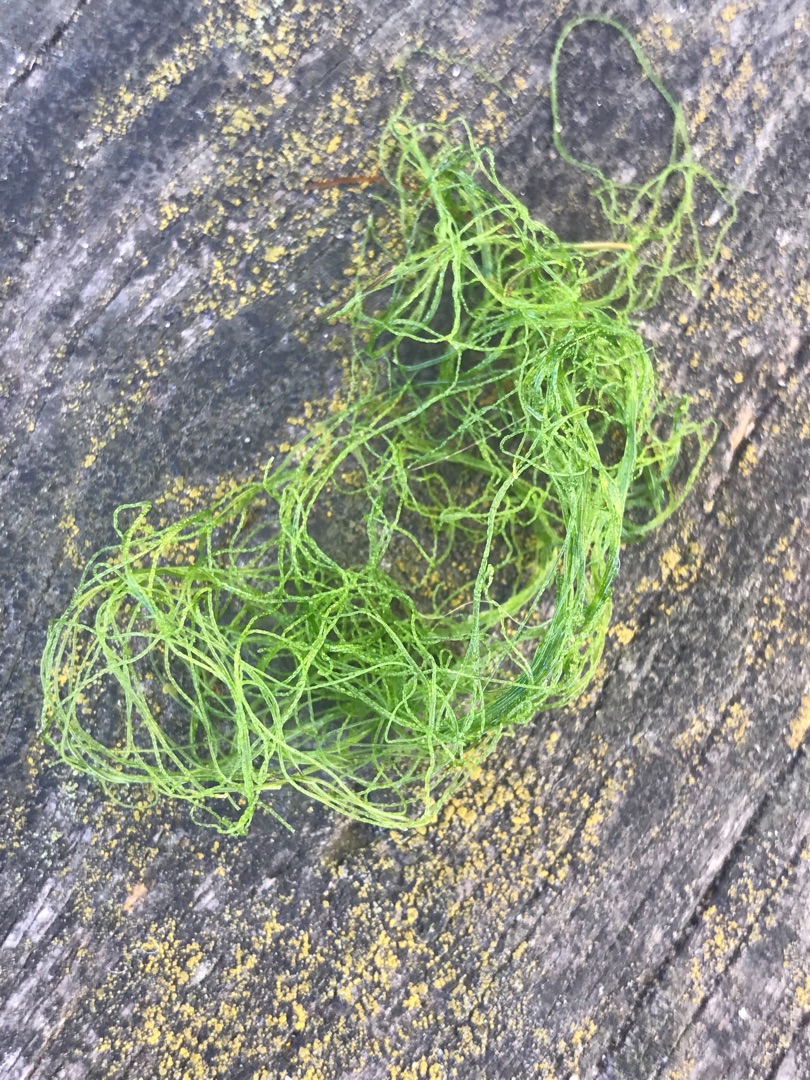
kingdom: Plantae
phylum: Chlorophyta
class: Ulvophyceae
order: Ulvales
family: Ulvaceae
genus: Ulva
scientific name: Ulva
